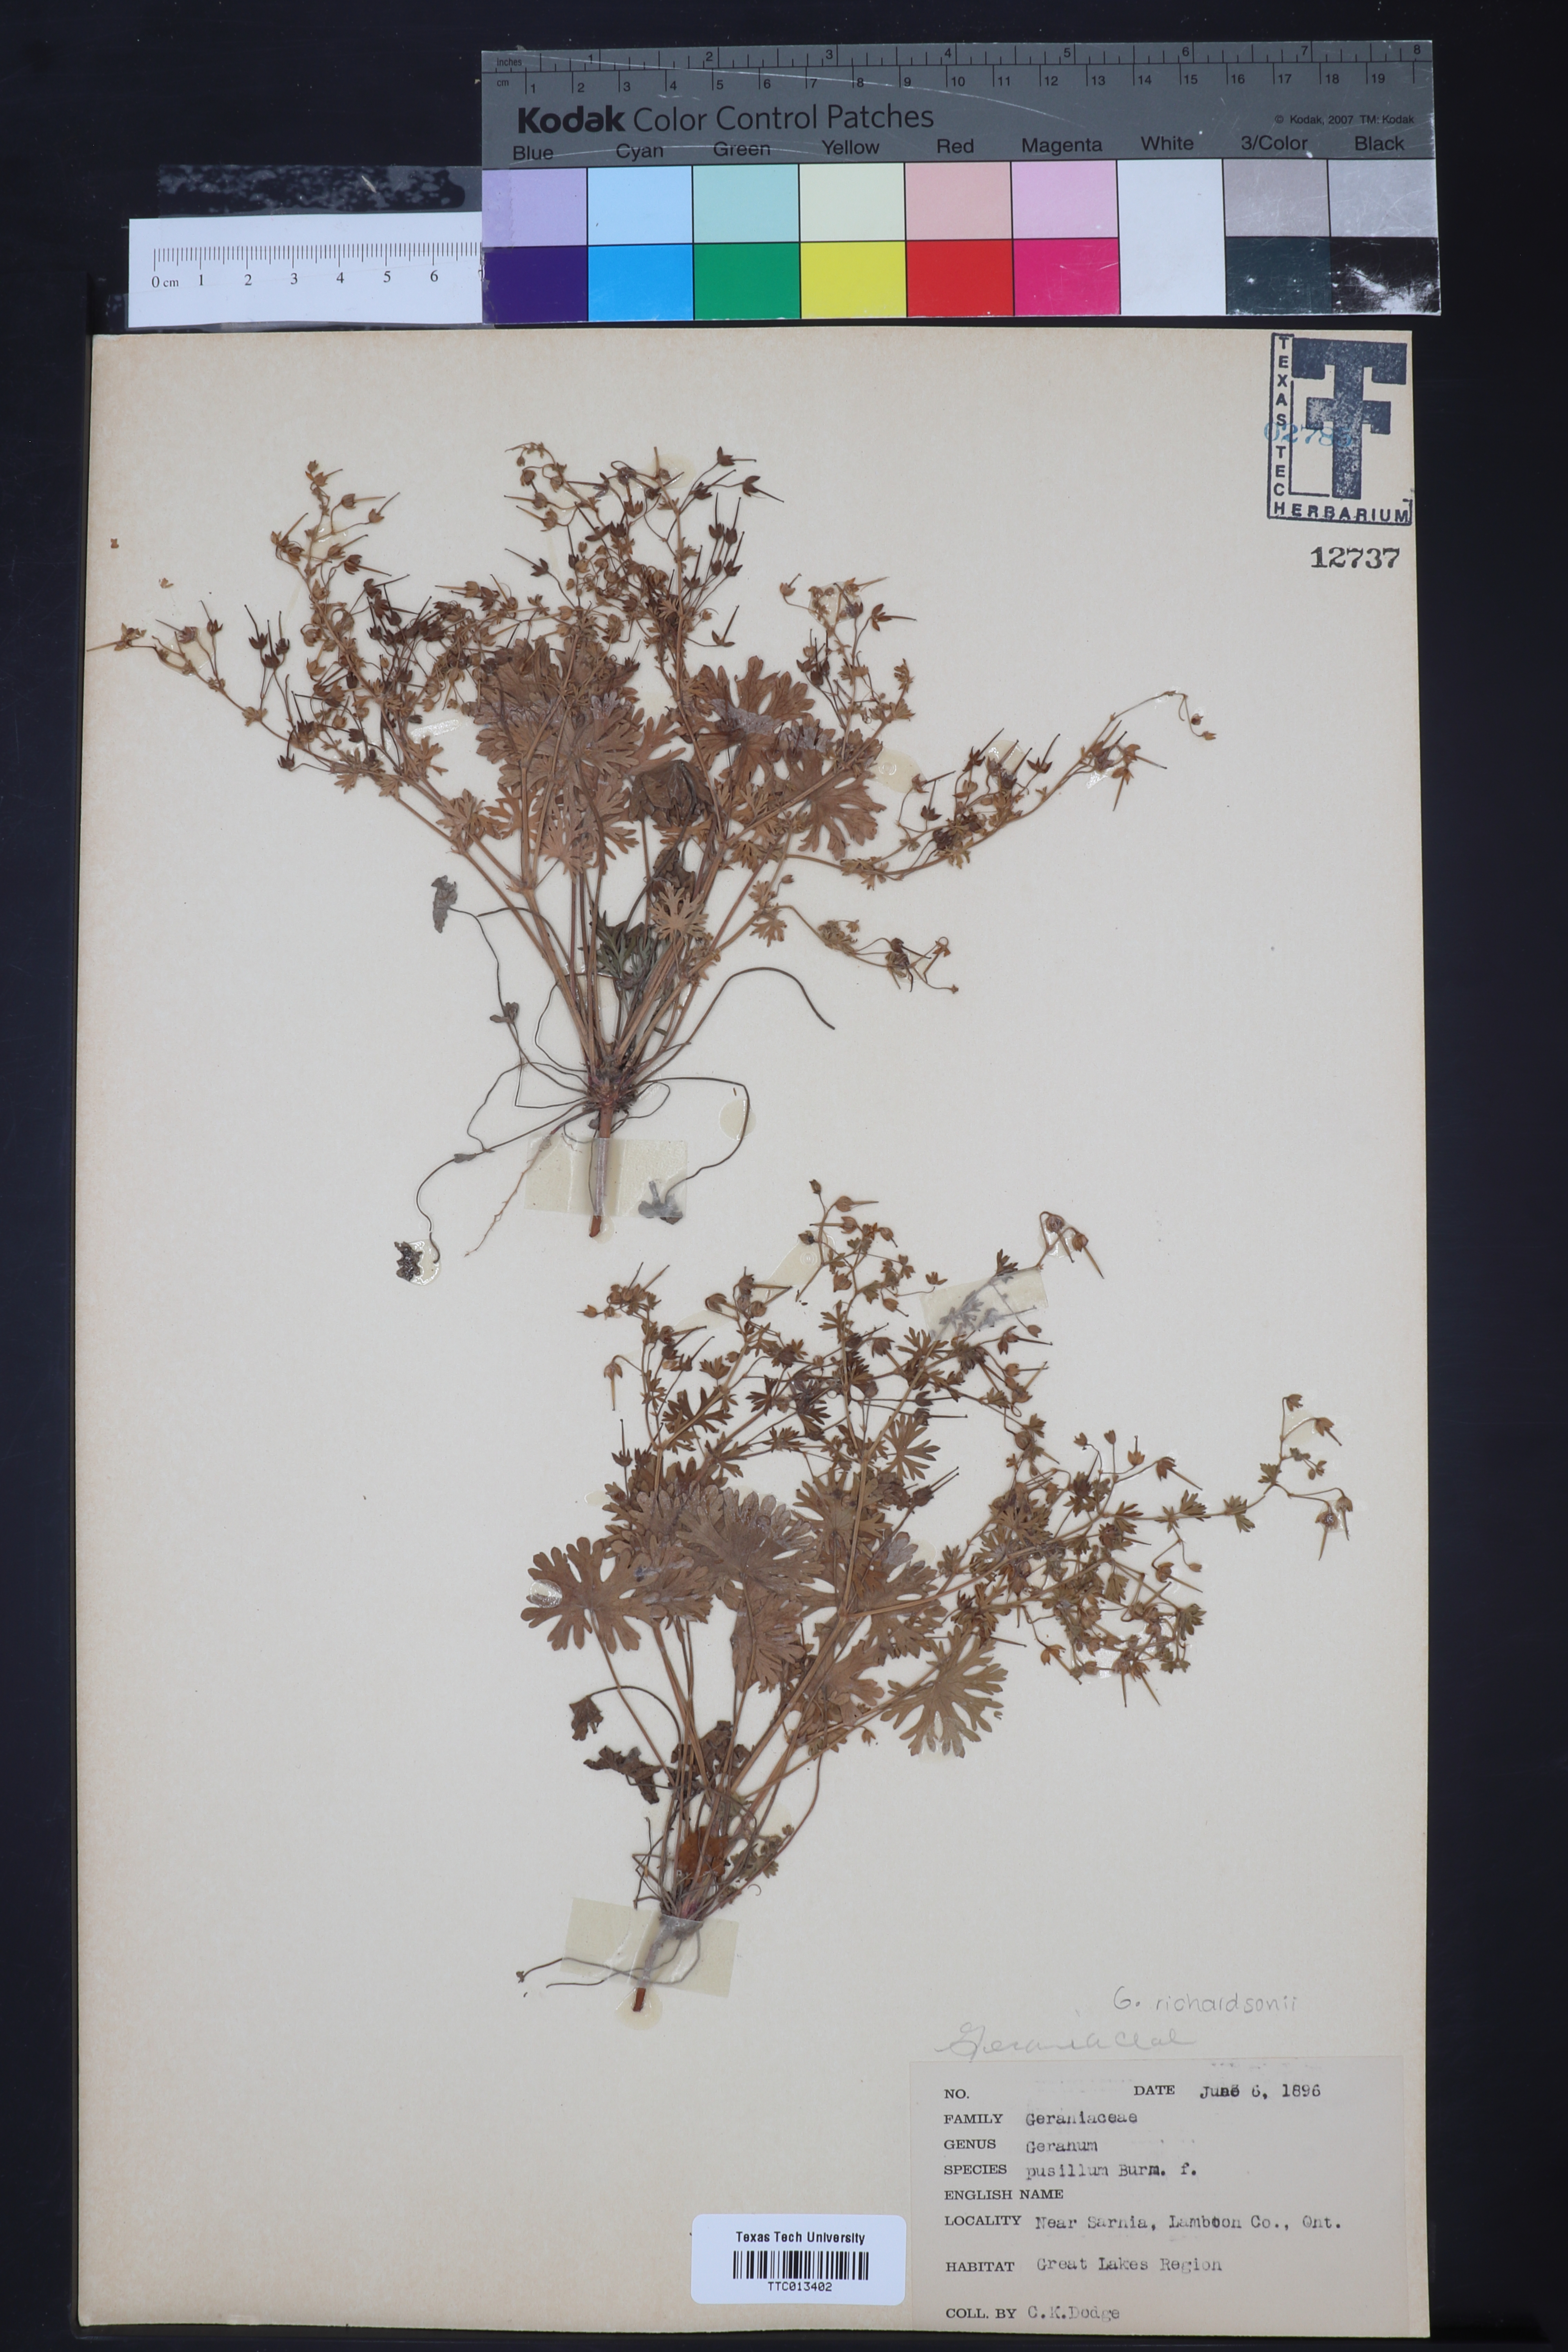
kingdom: Plantae
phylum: Tracheophyta
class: Magnoliopsida
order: Geraniales
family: Geraniaceae
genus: Geranium
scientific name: Geranium pusillum
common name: Small geranium
